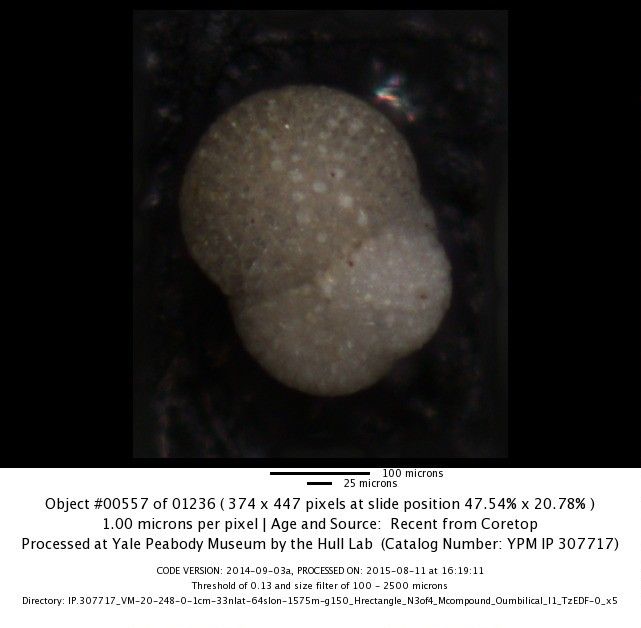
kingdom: Chromista
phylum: Foraminifera
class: Globothalamea
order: Rotaliida
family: Globigerinidae
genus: Globigerinoides
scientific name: Globigerinoides sacculifer
